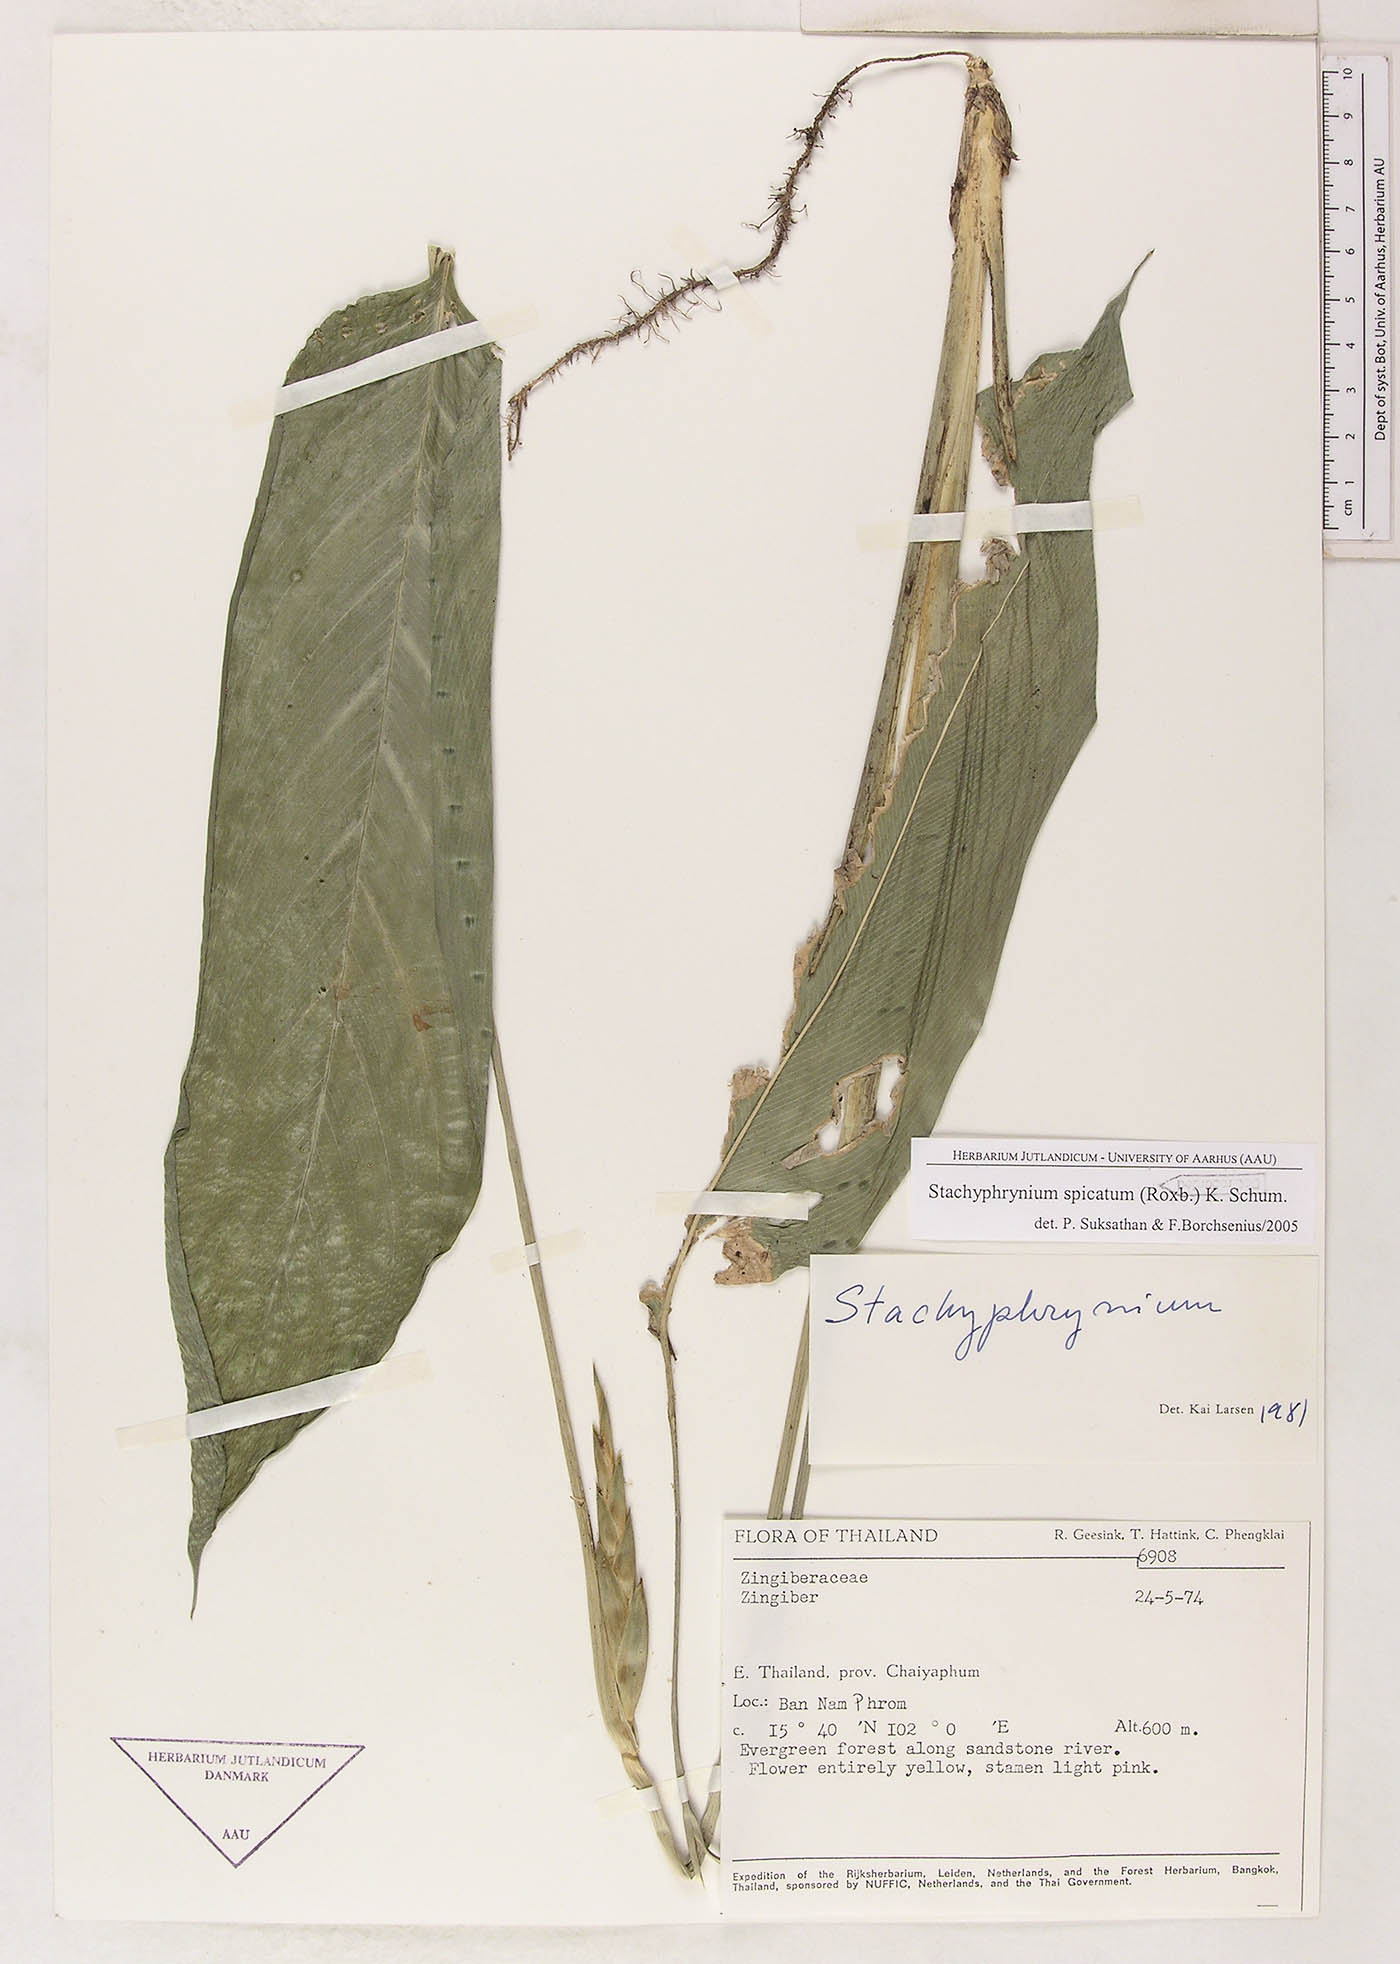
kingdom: Plantae
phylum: Tracheophyta
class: Liliopsida
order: Zingiberales
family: Marantaceae
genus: Stachyphrynium
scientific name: Stachyphrynium spicatum
